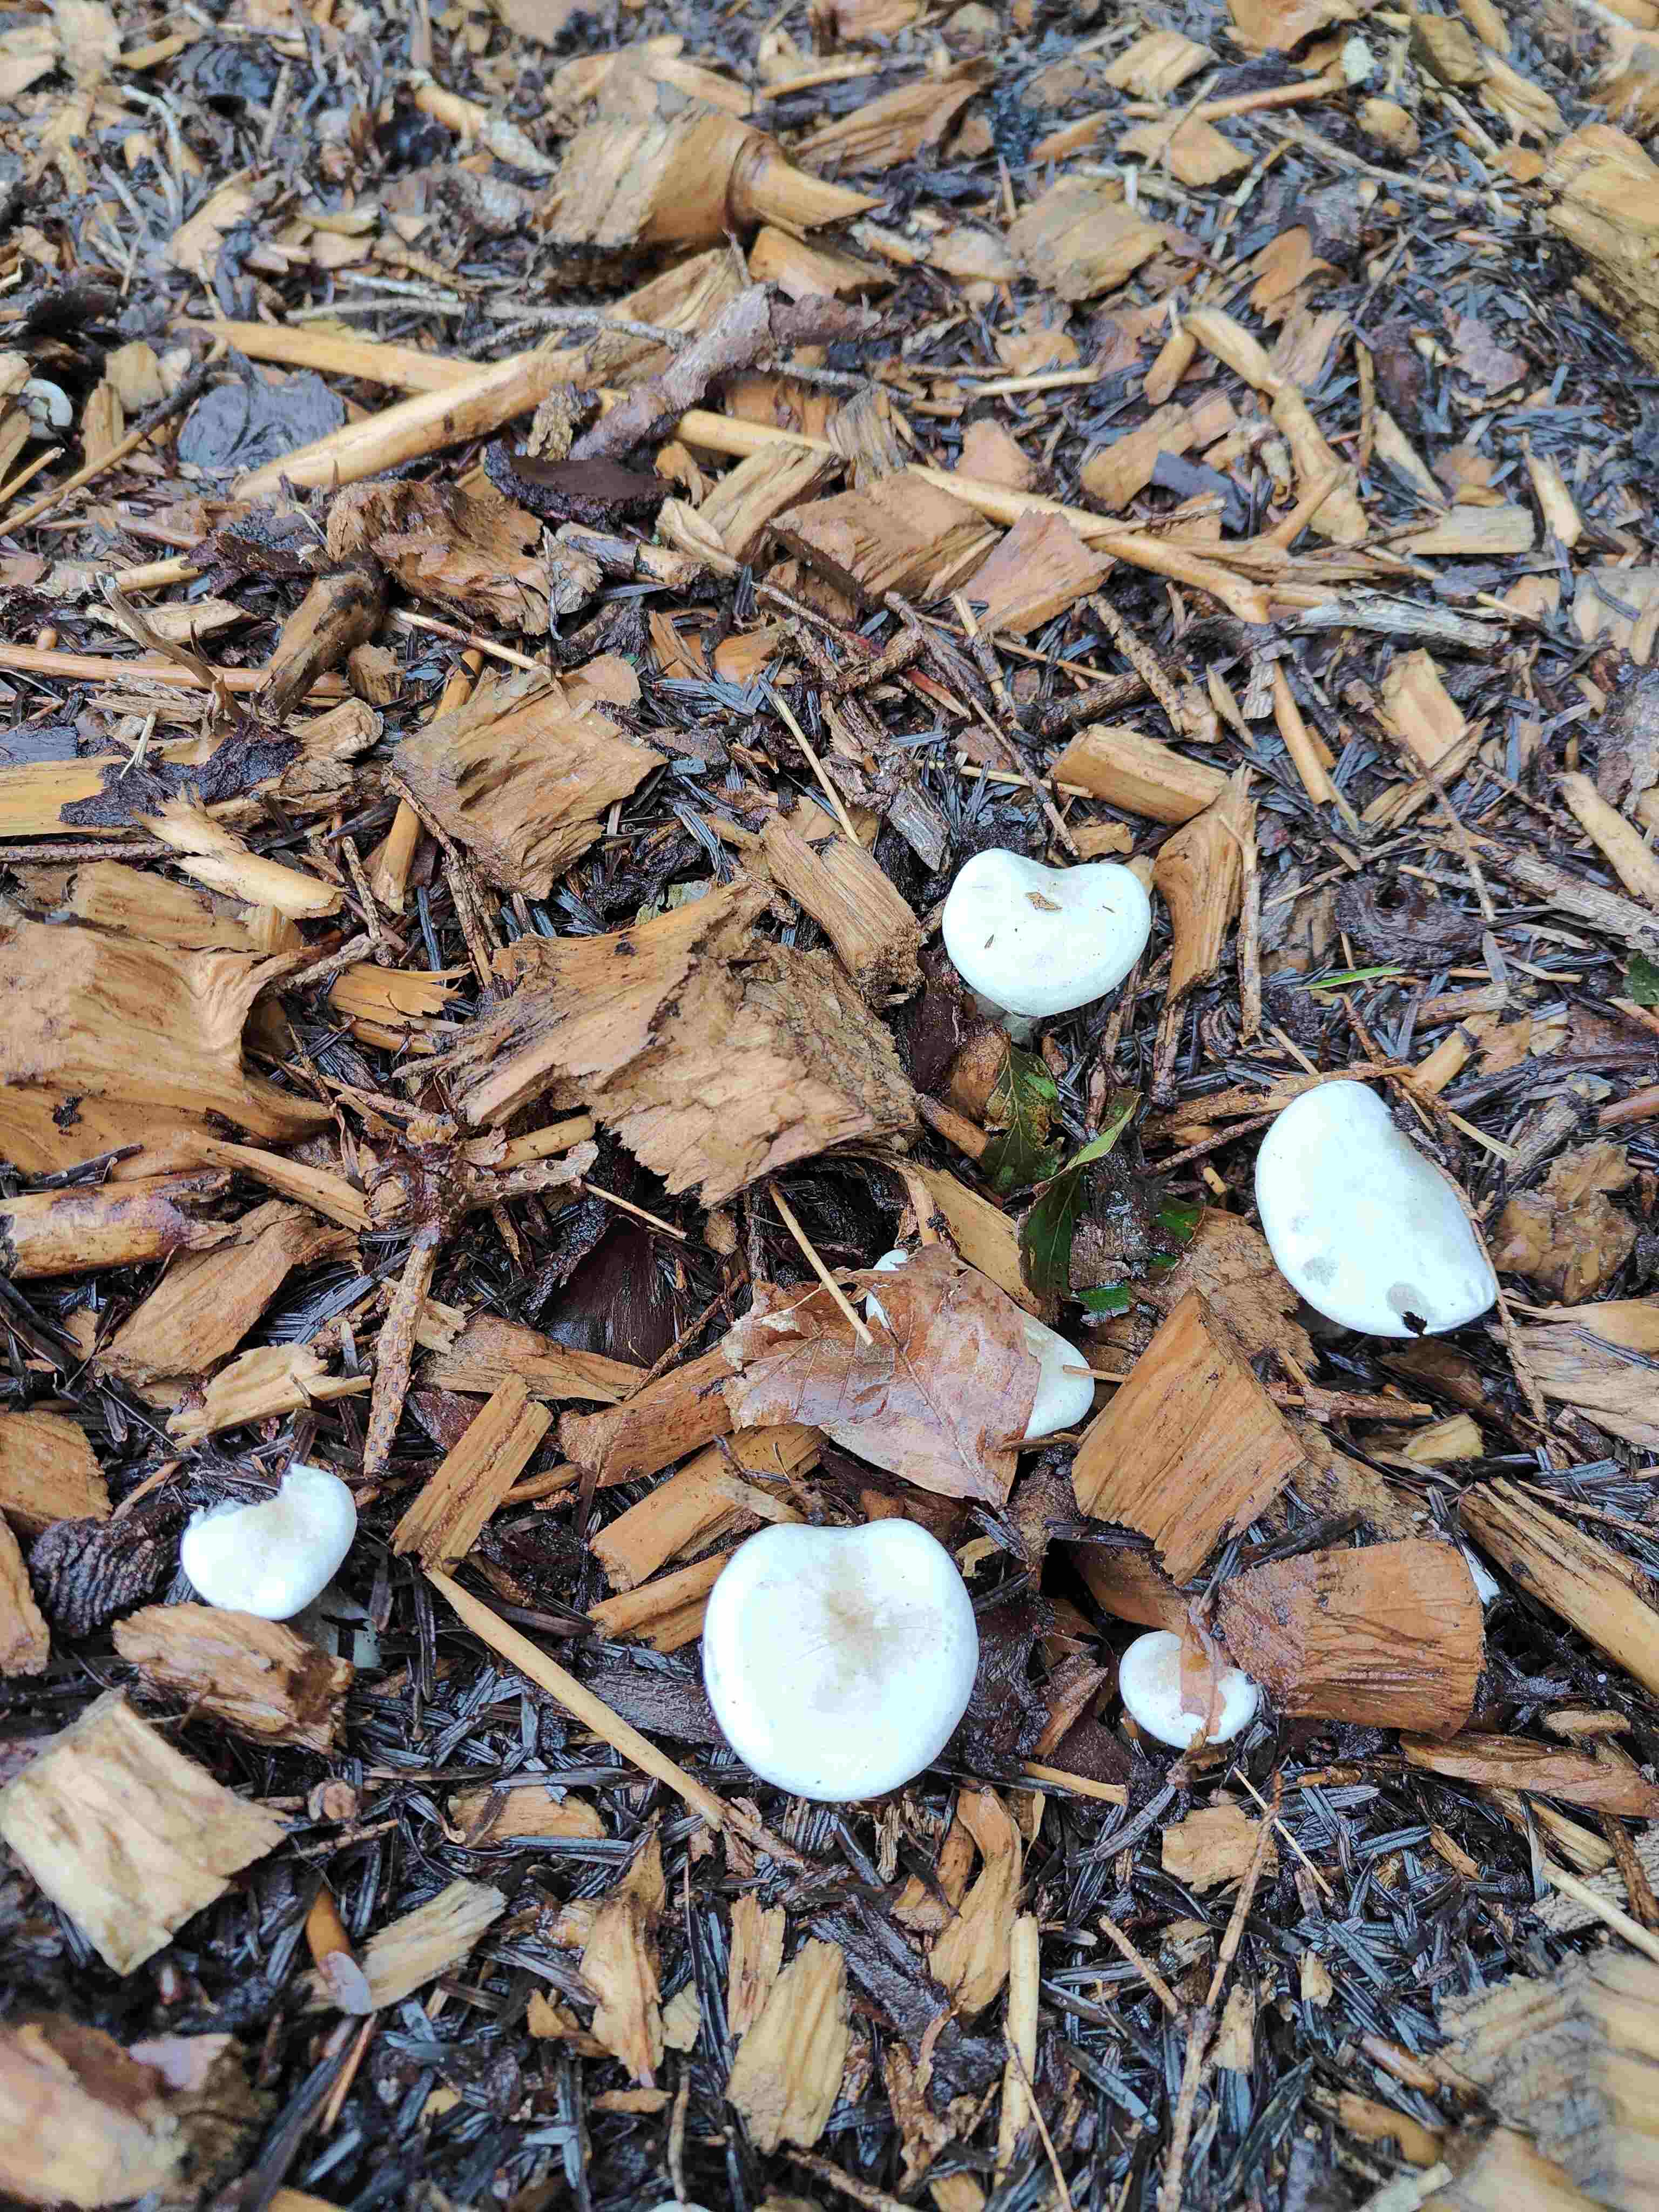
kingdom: Fungi
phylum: Basidiomycota
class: Agaricomycetes
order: Agaricales
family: Tricholomataceae
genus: Melanoleuca
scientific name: Melanoleuca verrucipes
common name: rufodet munkehat
